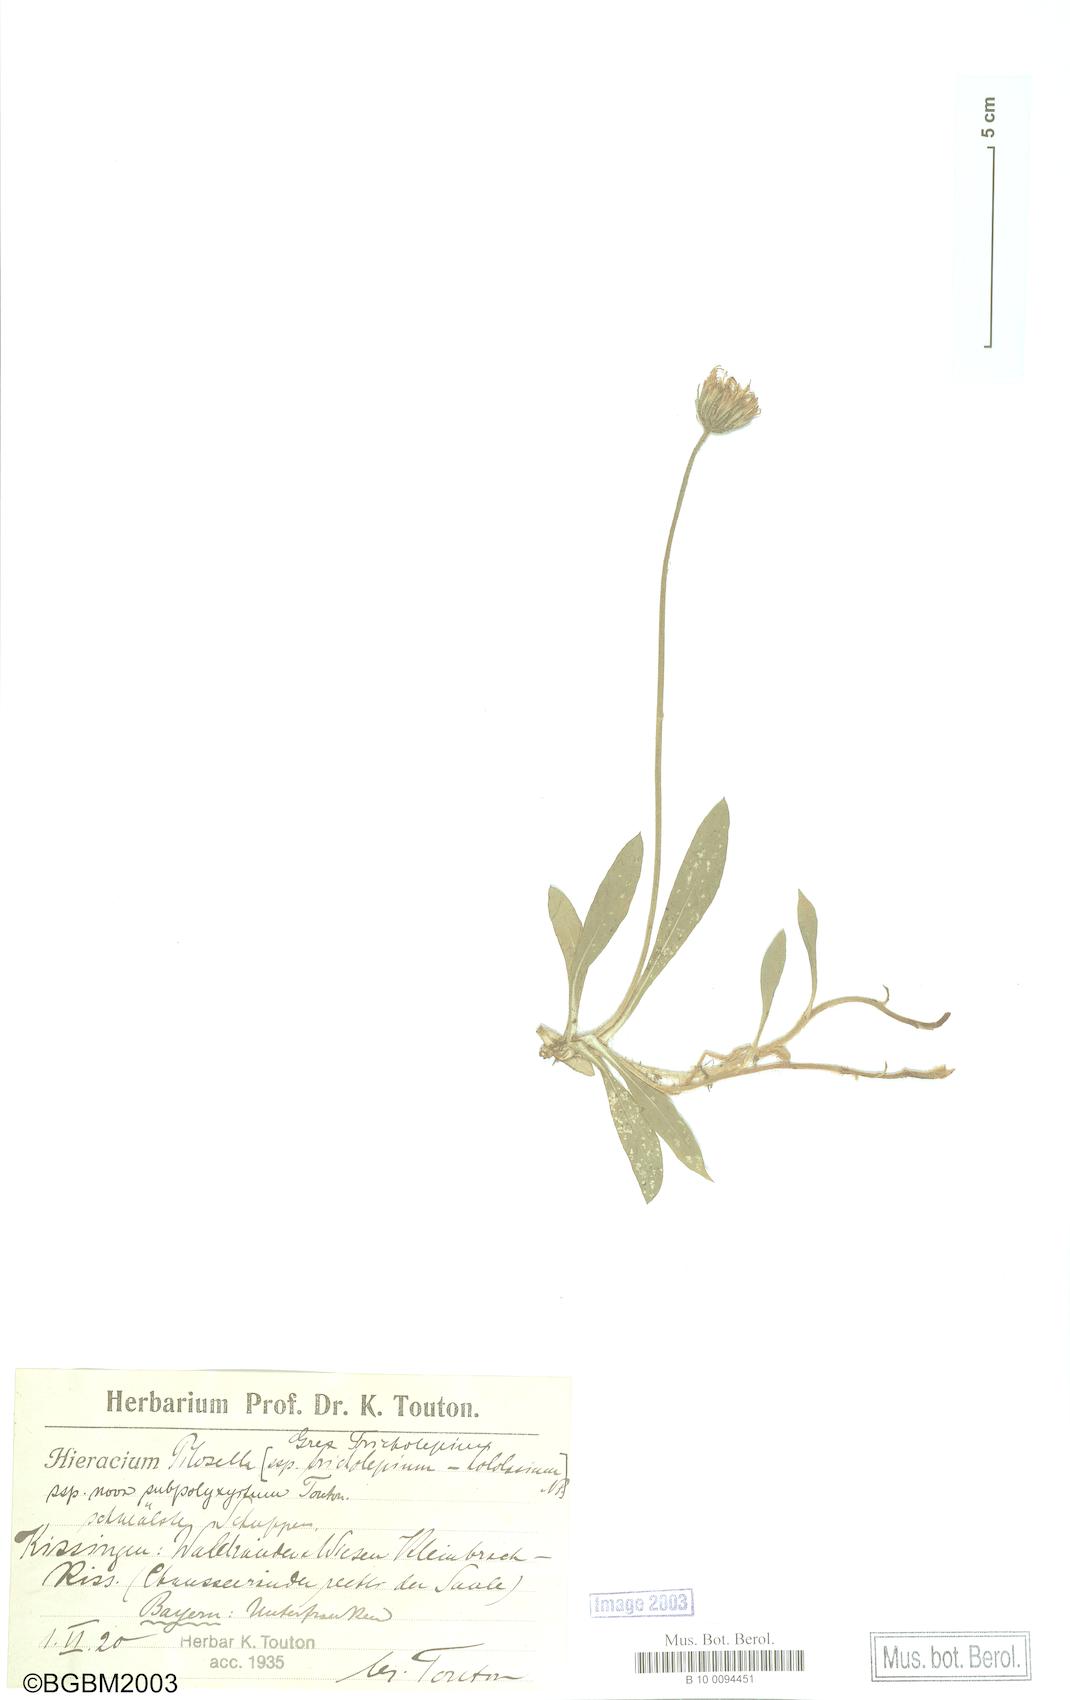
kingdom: Plantae
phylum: Tracheophyta
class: Magnoliopsida
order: Asterales
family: Asteraceae
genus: Pilosella
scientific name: Pilosella officinarum
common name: Mouse-ear hawkweed
